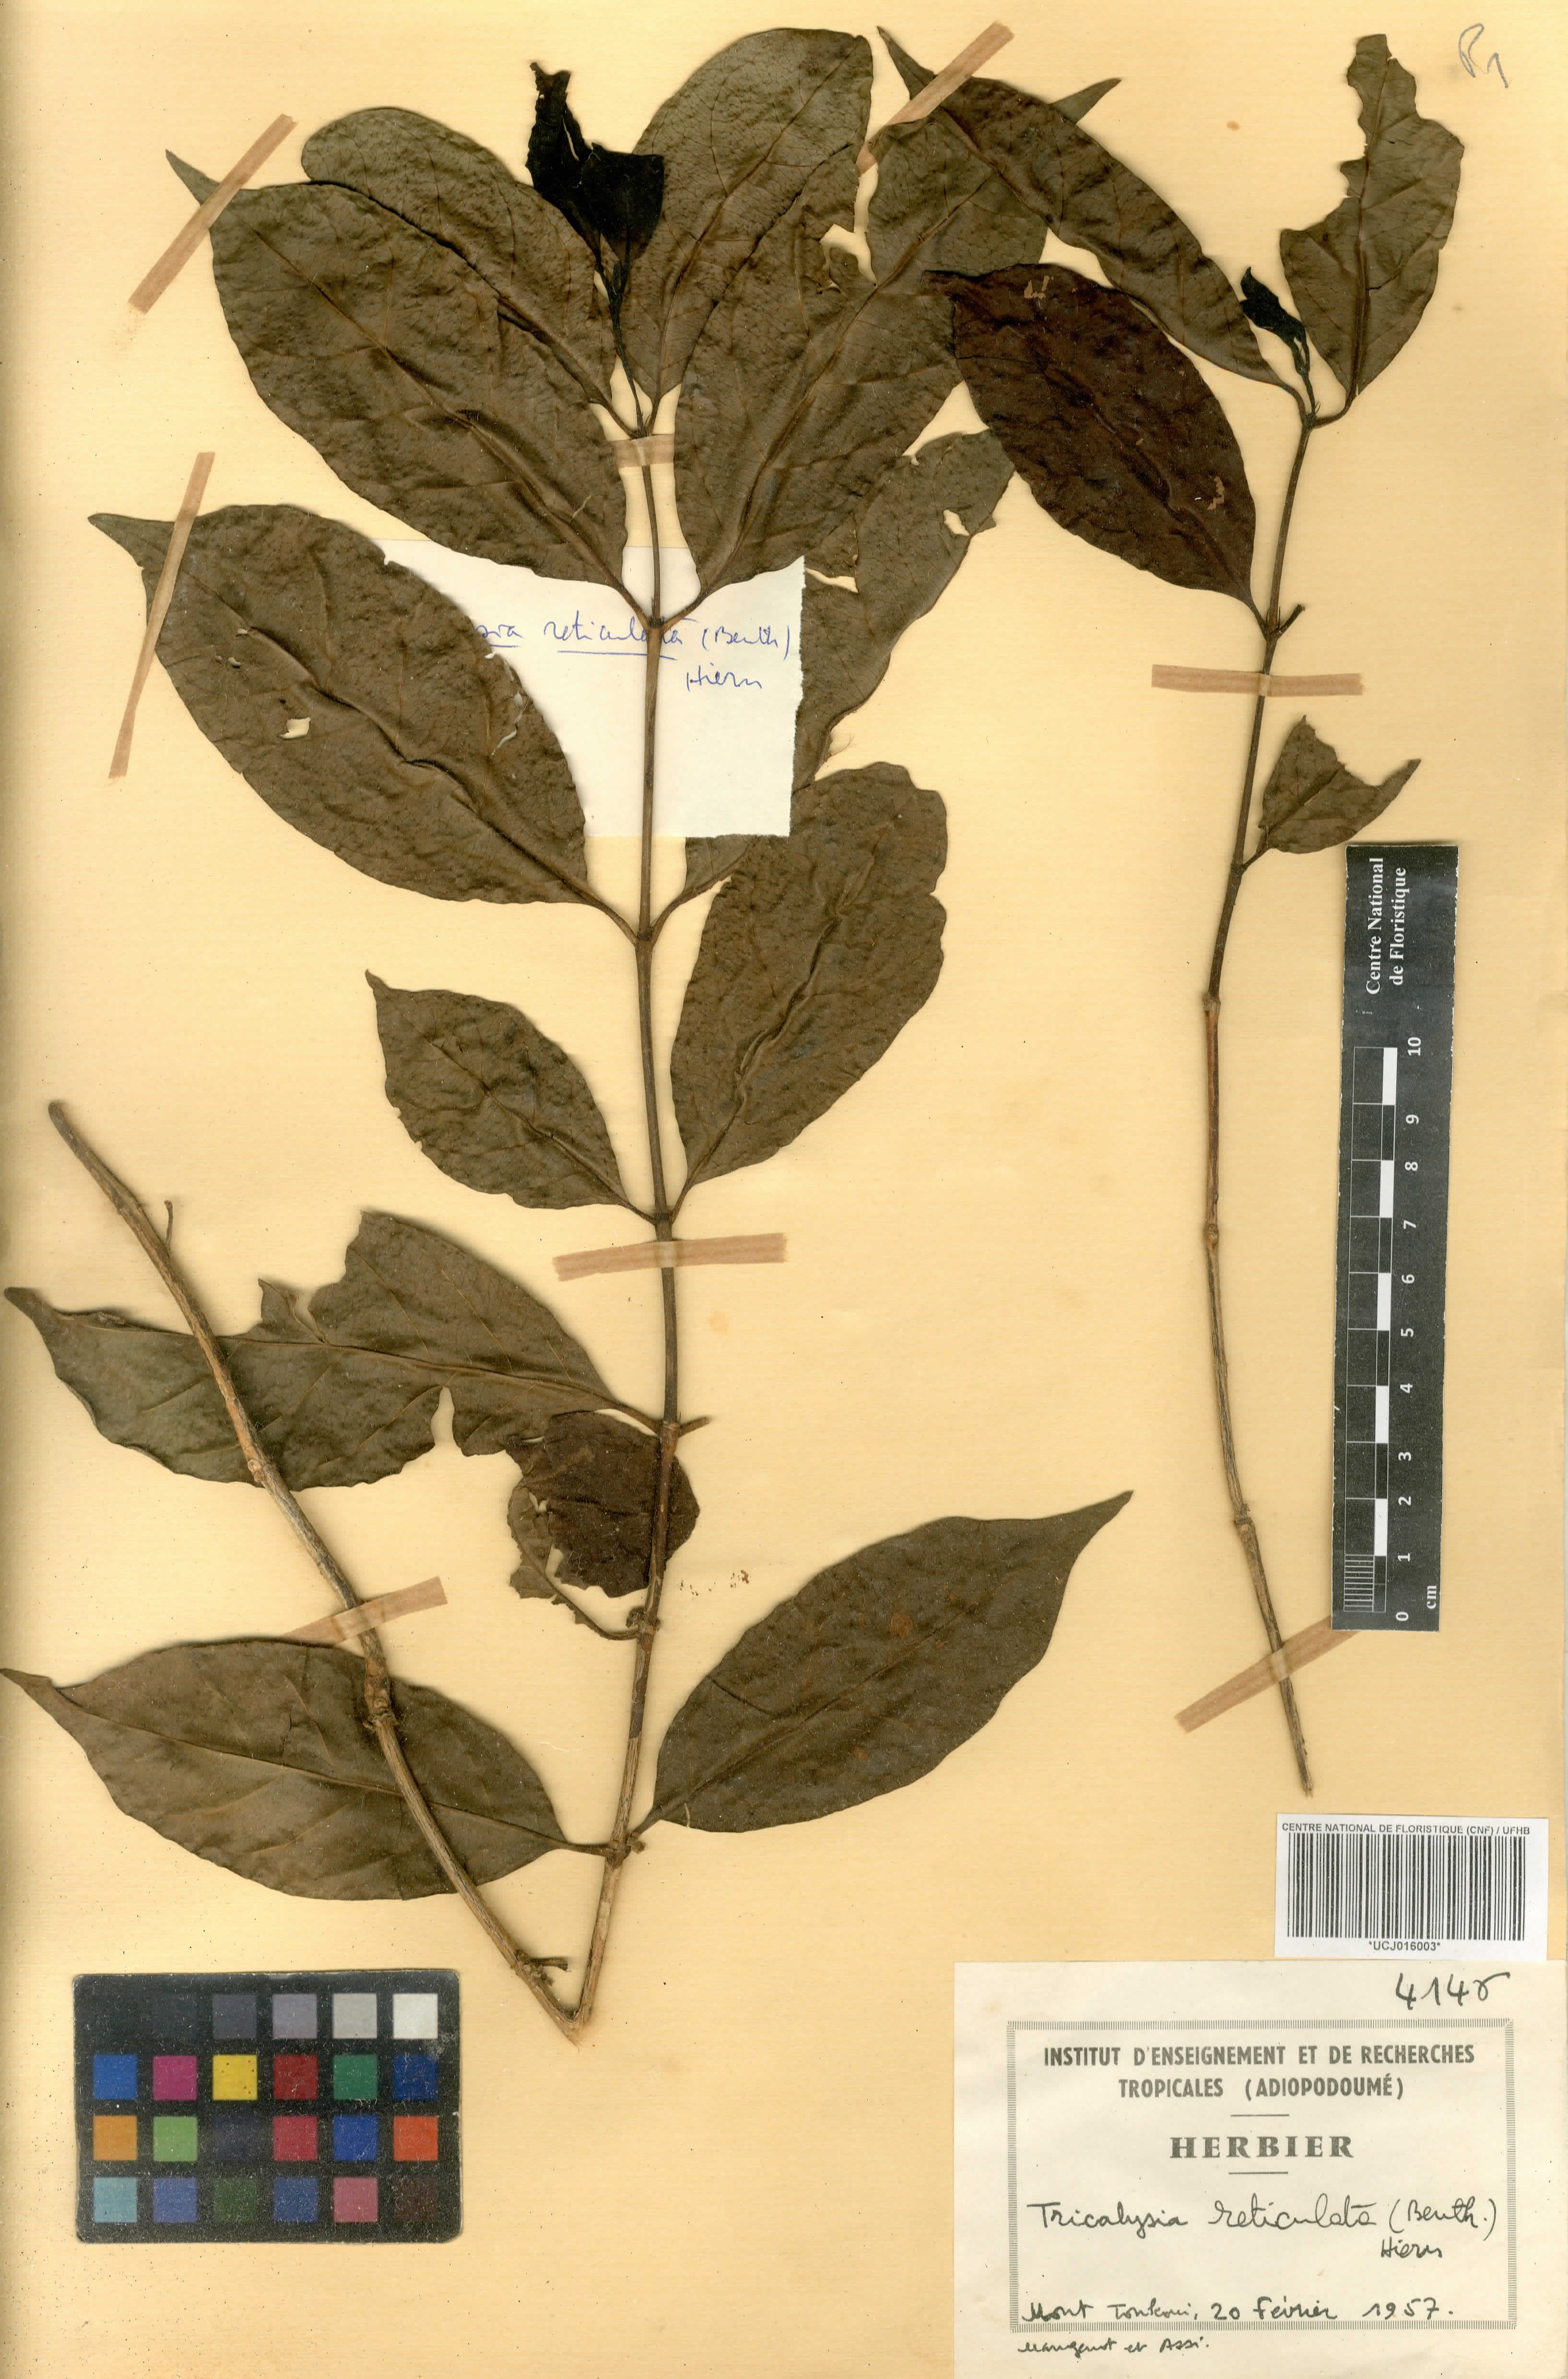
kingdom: Plantae
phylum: Tracheophyta
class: Magnoliopsida
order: Gentianales
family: Rubiaceae
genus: Tricalysia
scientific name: Tricalysia reticulata
